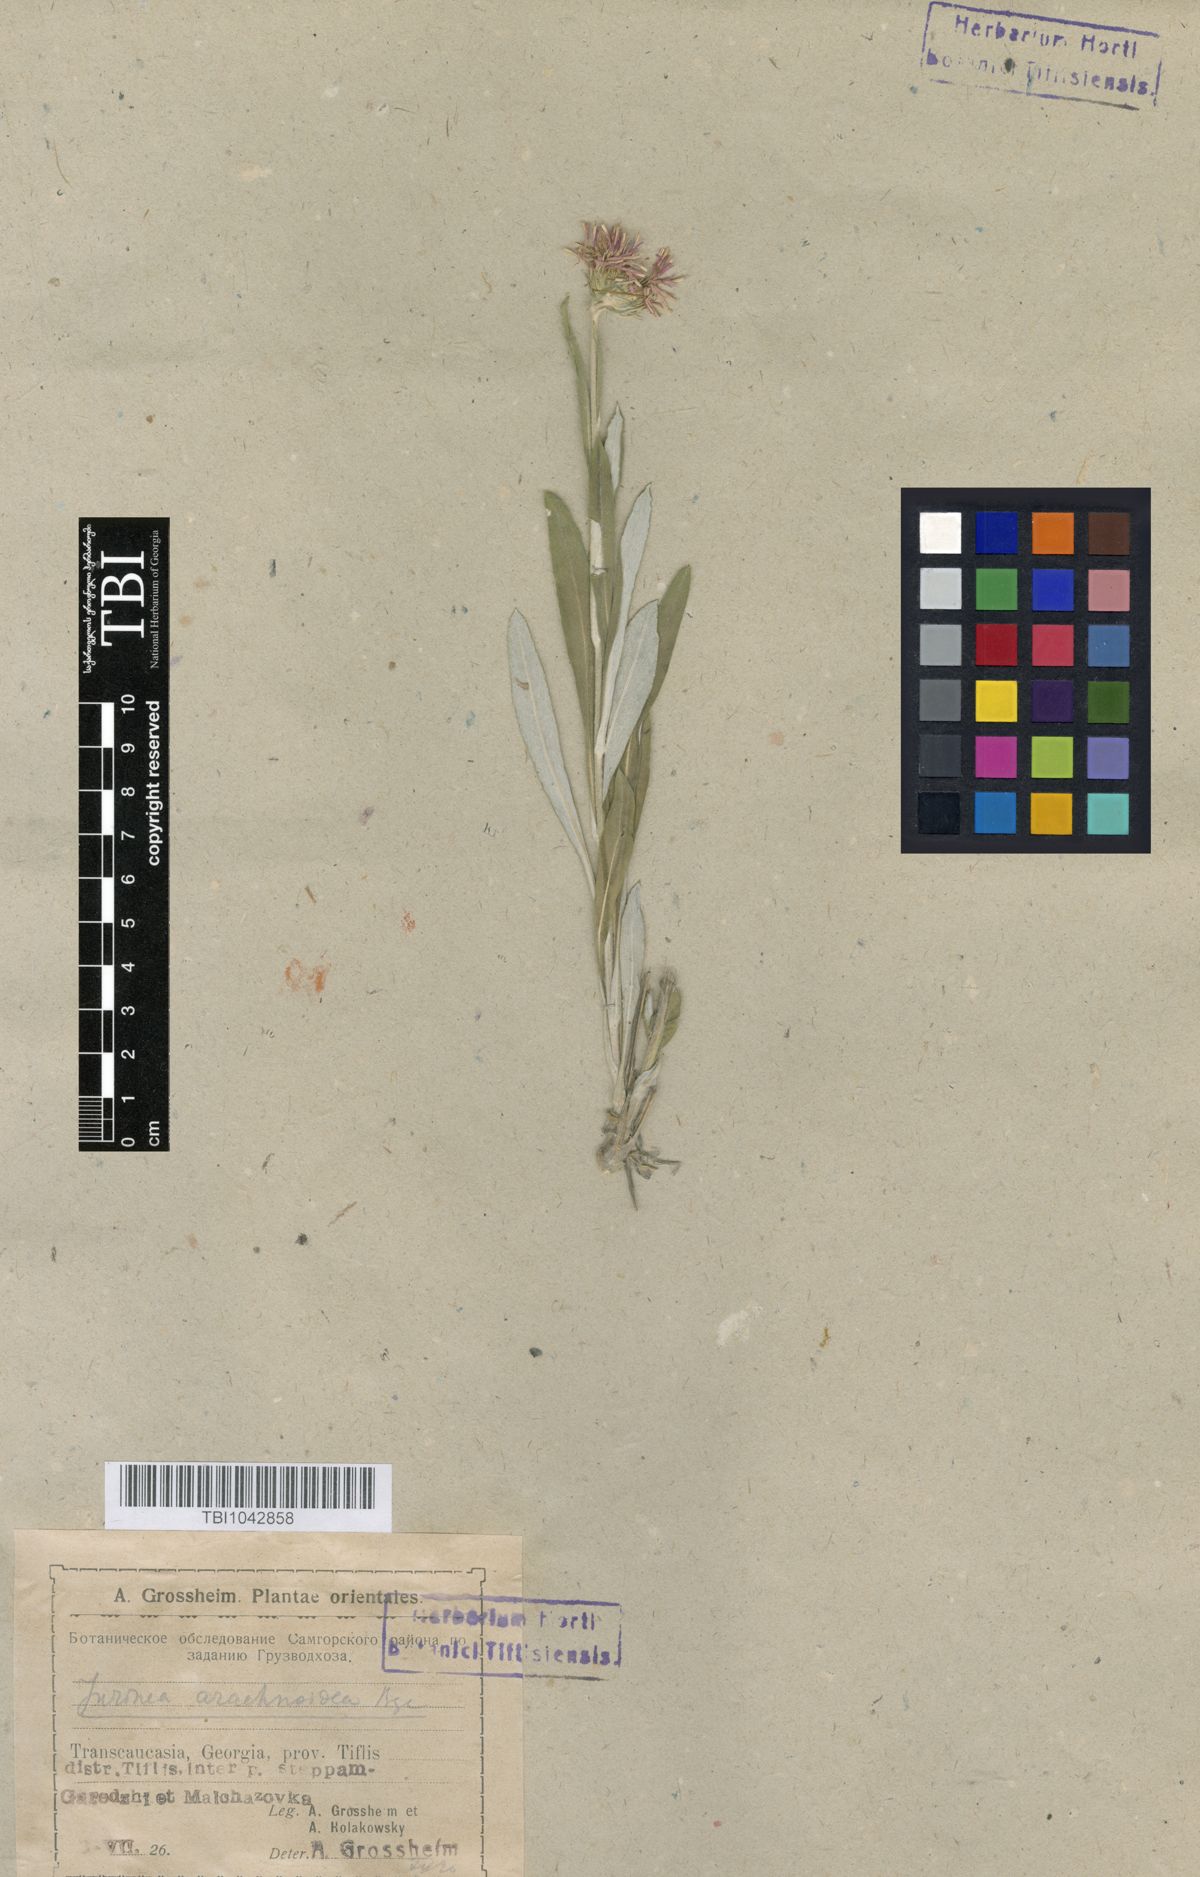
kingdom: Plantae
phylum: Tracheophyta
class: Magnoliopsida
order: Asterales
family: Asteraceae
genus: Jurinea
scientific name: Jurinea blanda
